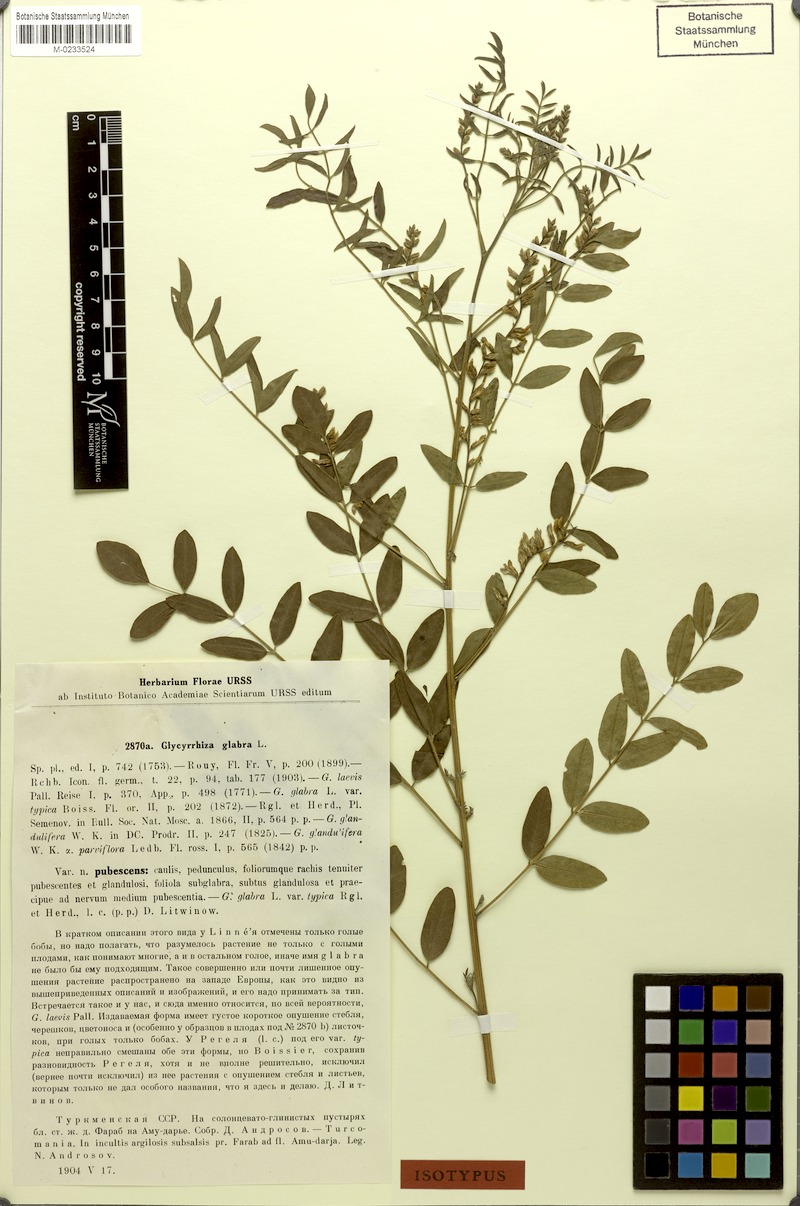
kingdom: Plantae
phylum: Tracheophyta
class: Magnoliopsida
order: Fabales
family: Fabaceae
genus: Glycyrrhiza
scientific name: Glycyrrhiza glabra
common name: Liquorice
